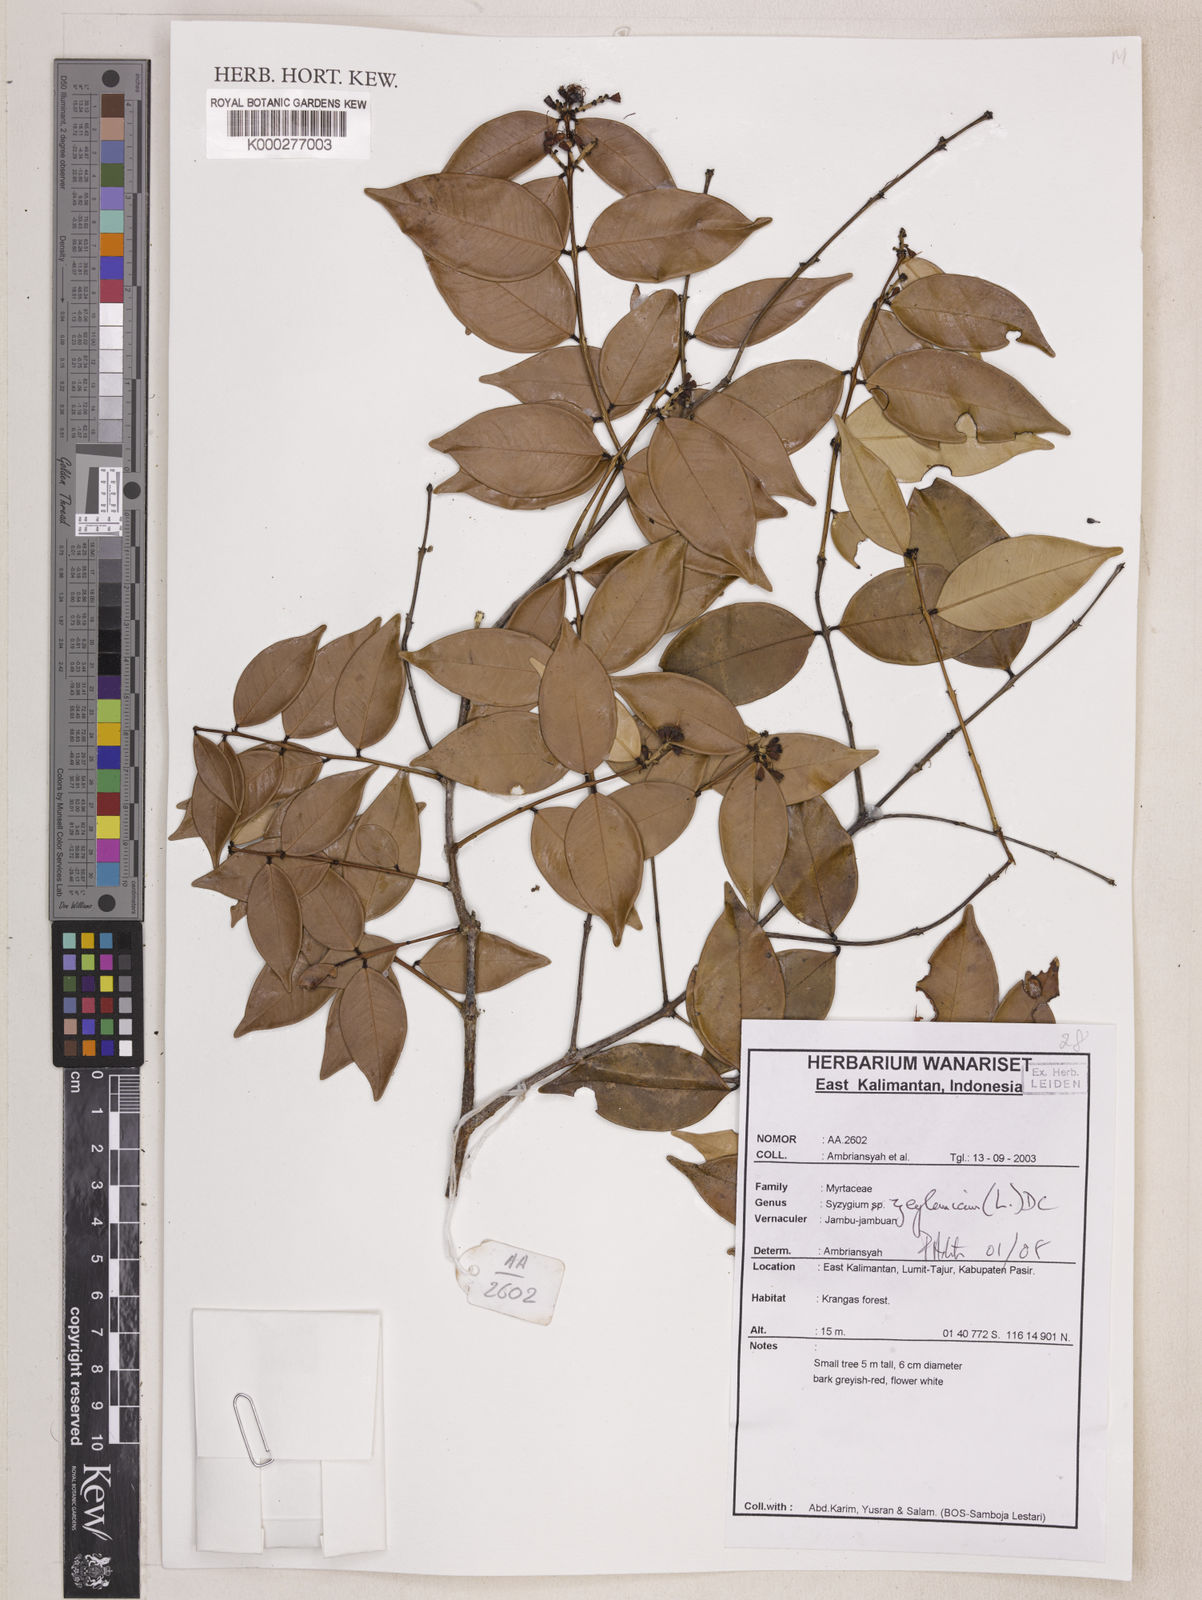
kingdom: Plantae
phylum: Tracheophyta
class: Magnoliopsida
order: Myrtales
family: Myrtaceae
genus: Syzygium
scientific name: Syzygium zeylanicum
